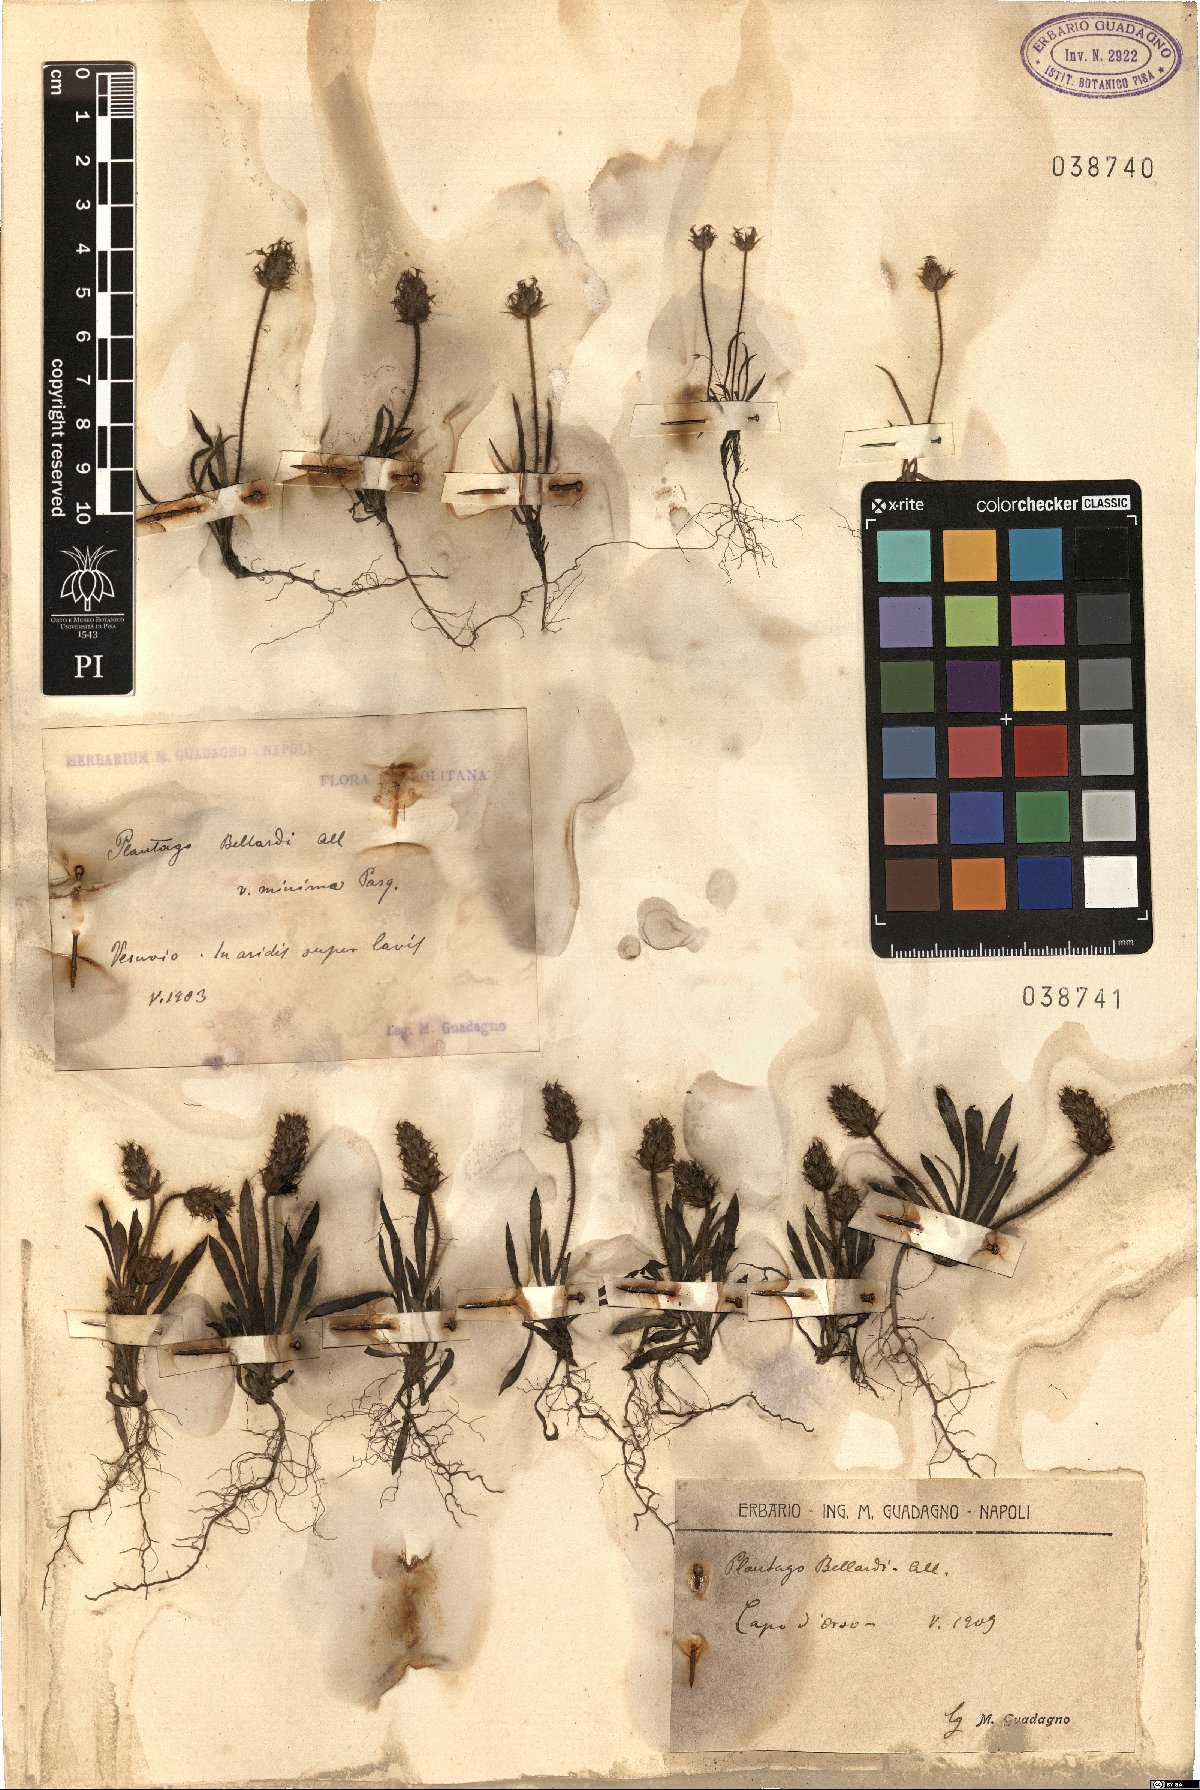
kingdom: Plantae
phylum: Tracheophyta
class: Magnoliopsida
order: Lamiales
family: Plantaginaceae
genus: Plantago
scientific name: Plantago bellardii
